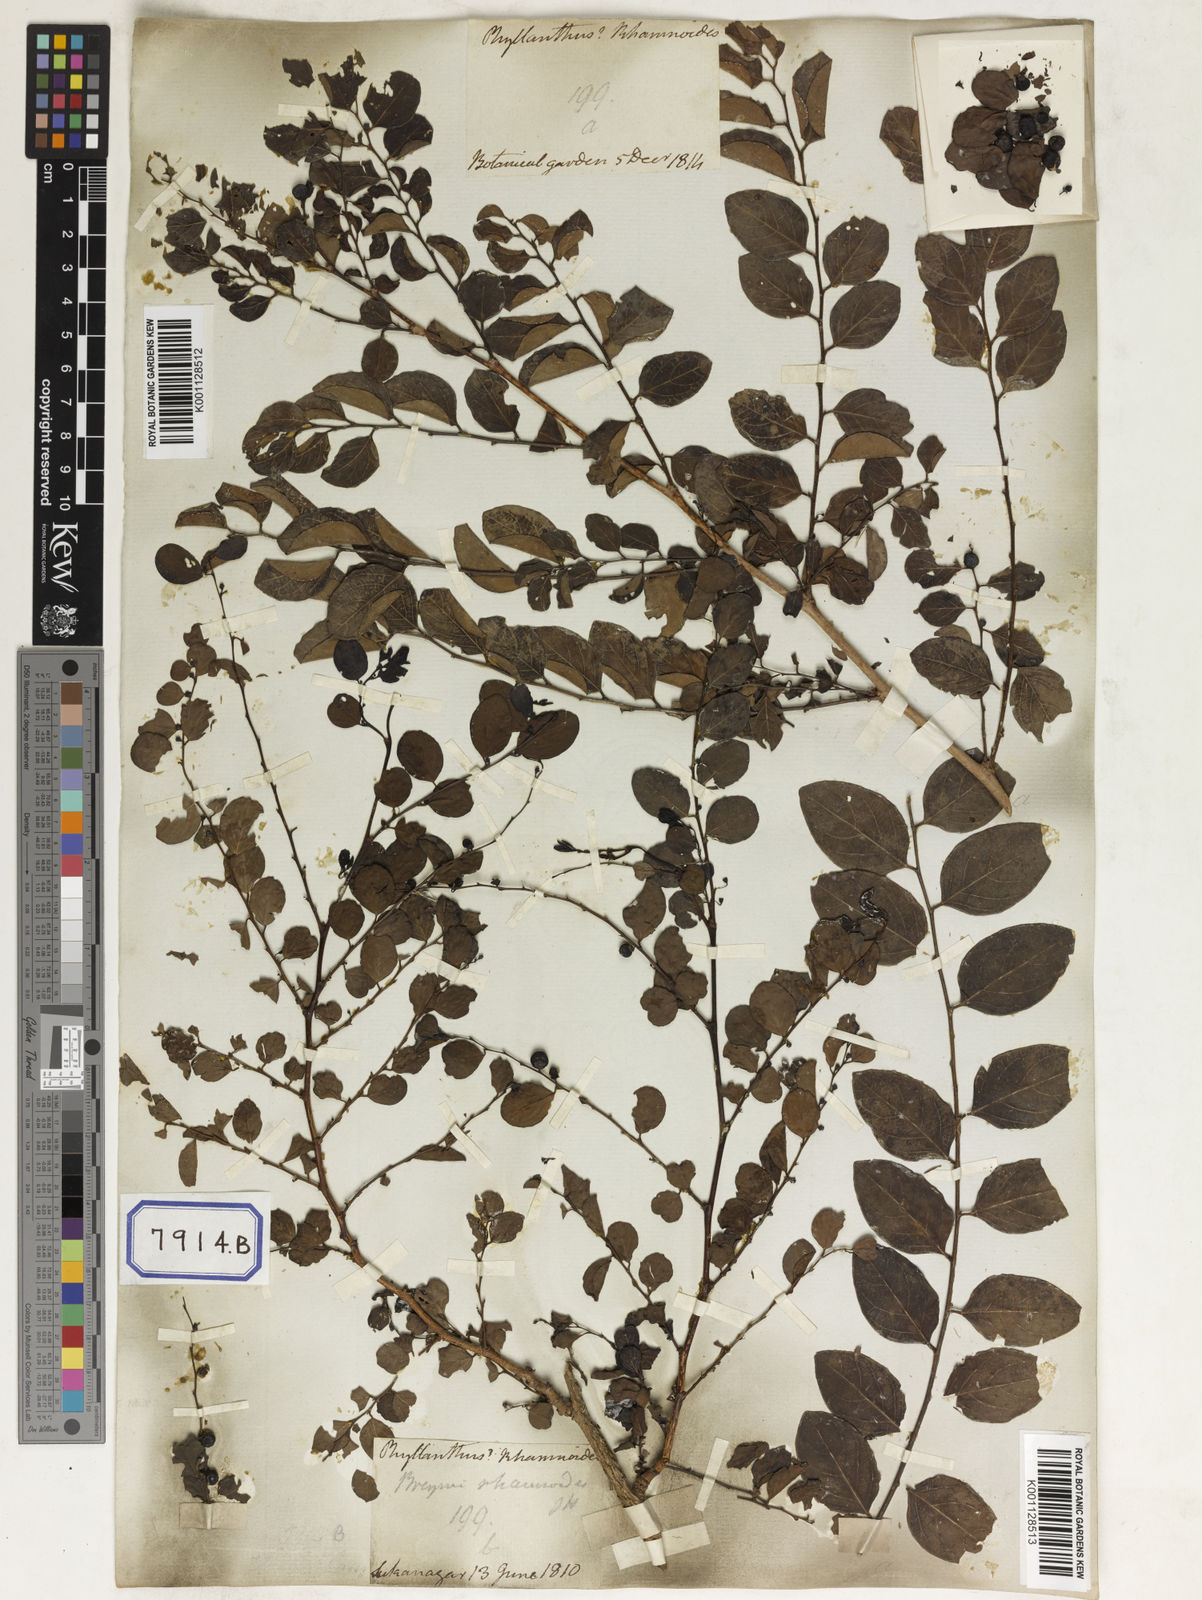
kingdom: Plantae
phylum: Tracheophyta
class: Magnoliopsida
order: Malpighiales
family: Euphorbiaceae
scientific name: Euphorbiaceae
